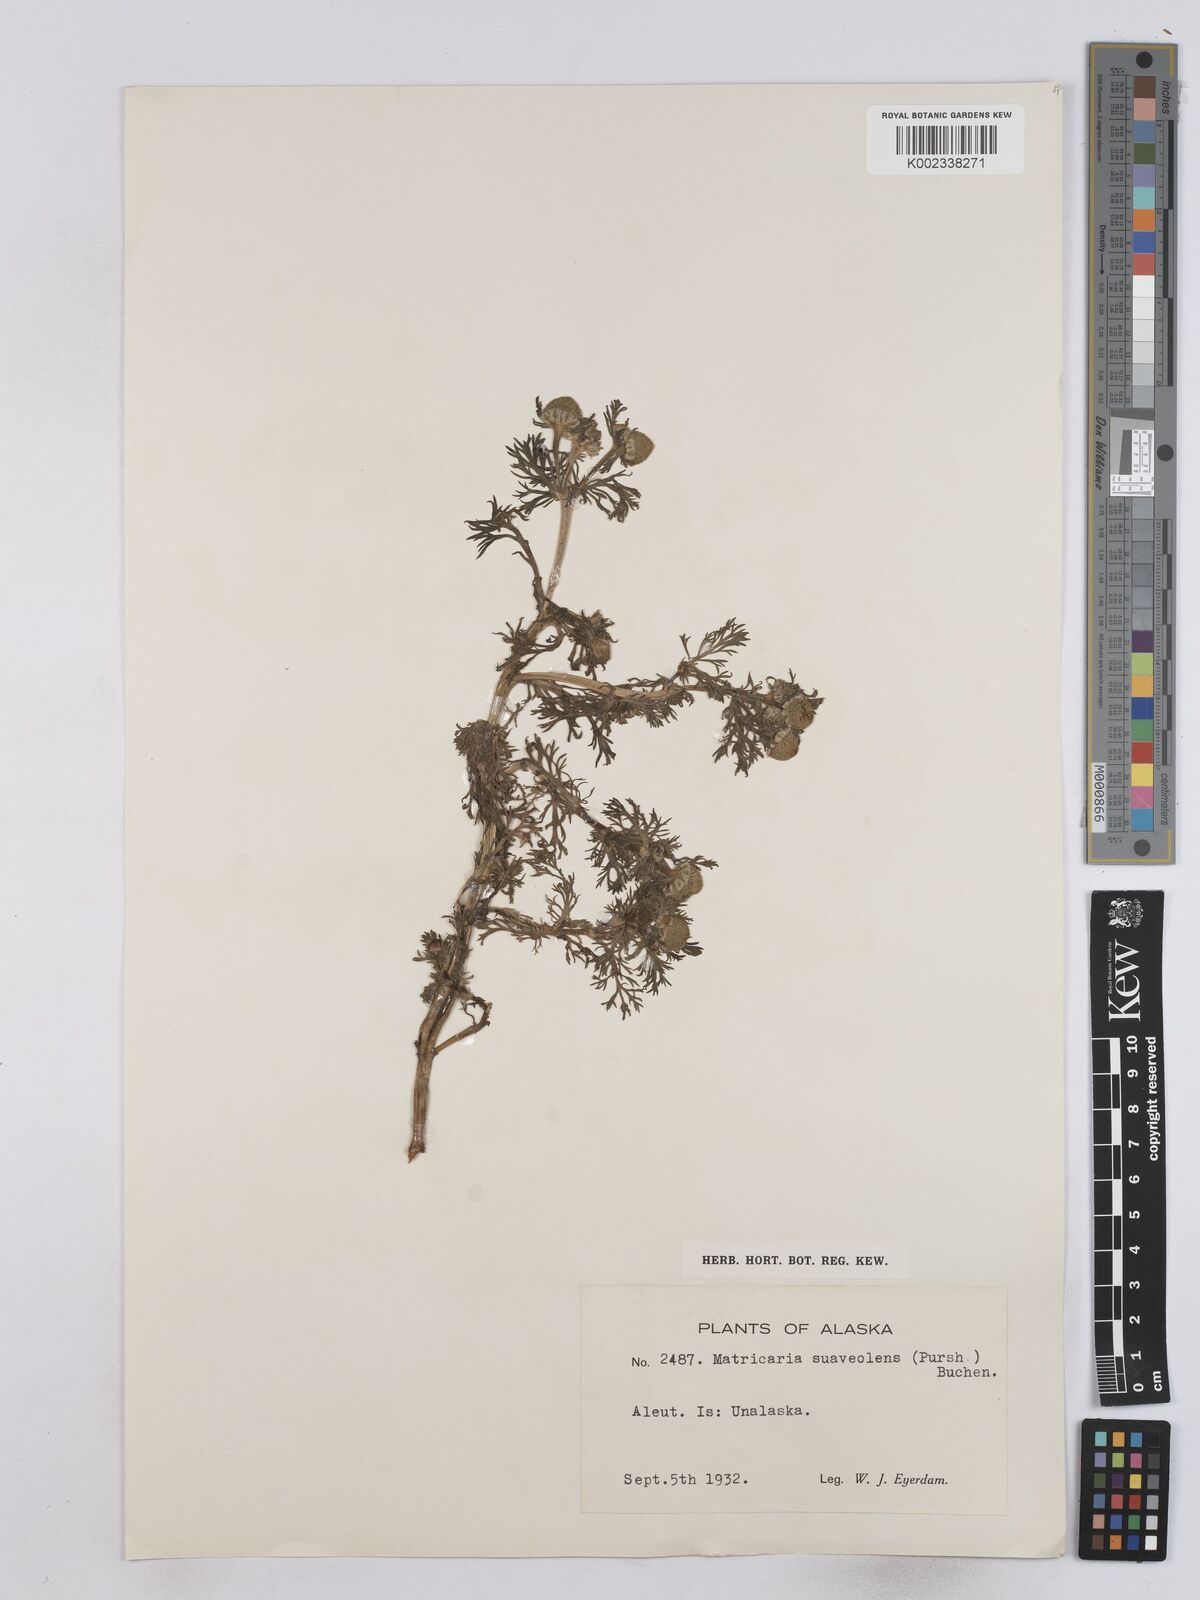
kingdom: Plantae
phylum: Tracheophyta
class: Magnoliopsida
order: Asterales
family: Asteraceae
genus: Matricaria
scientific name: Matricaria
